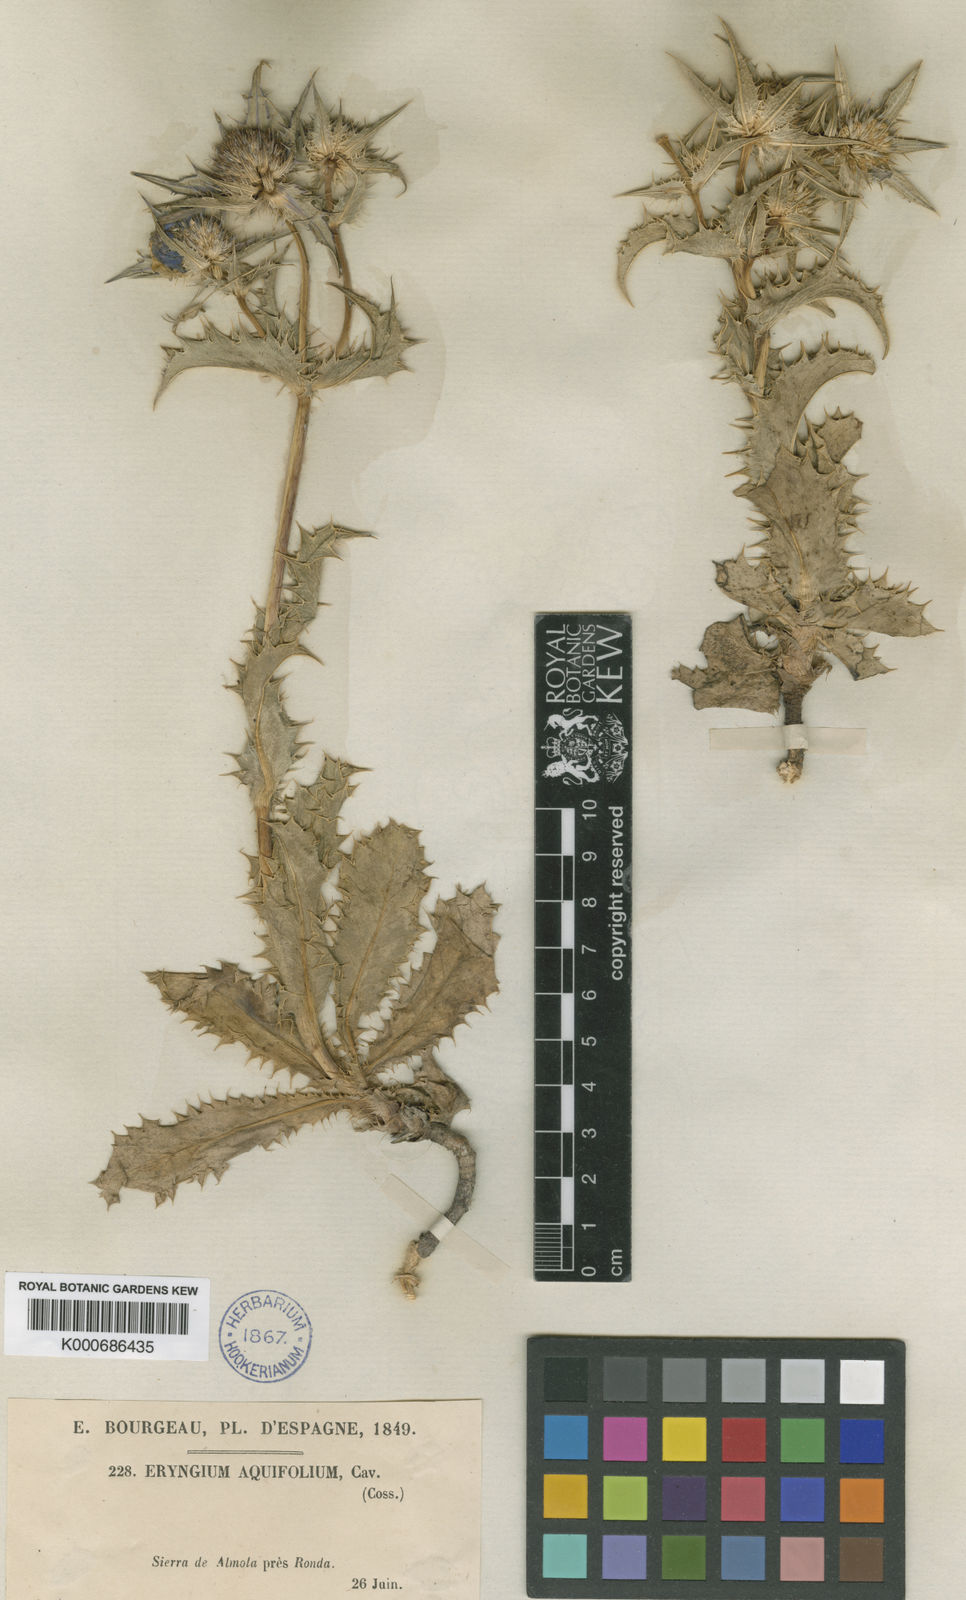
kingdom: Plantae
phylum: Tracheophyta
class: Magnoliopsida
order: Apiales
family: Apiaceae
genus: Eryngium
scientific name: Eryngium aquifolium
